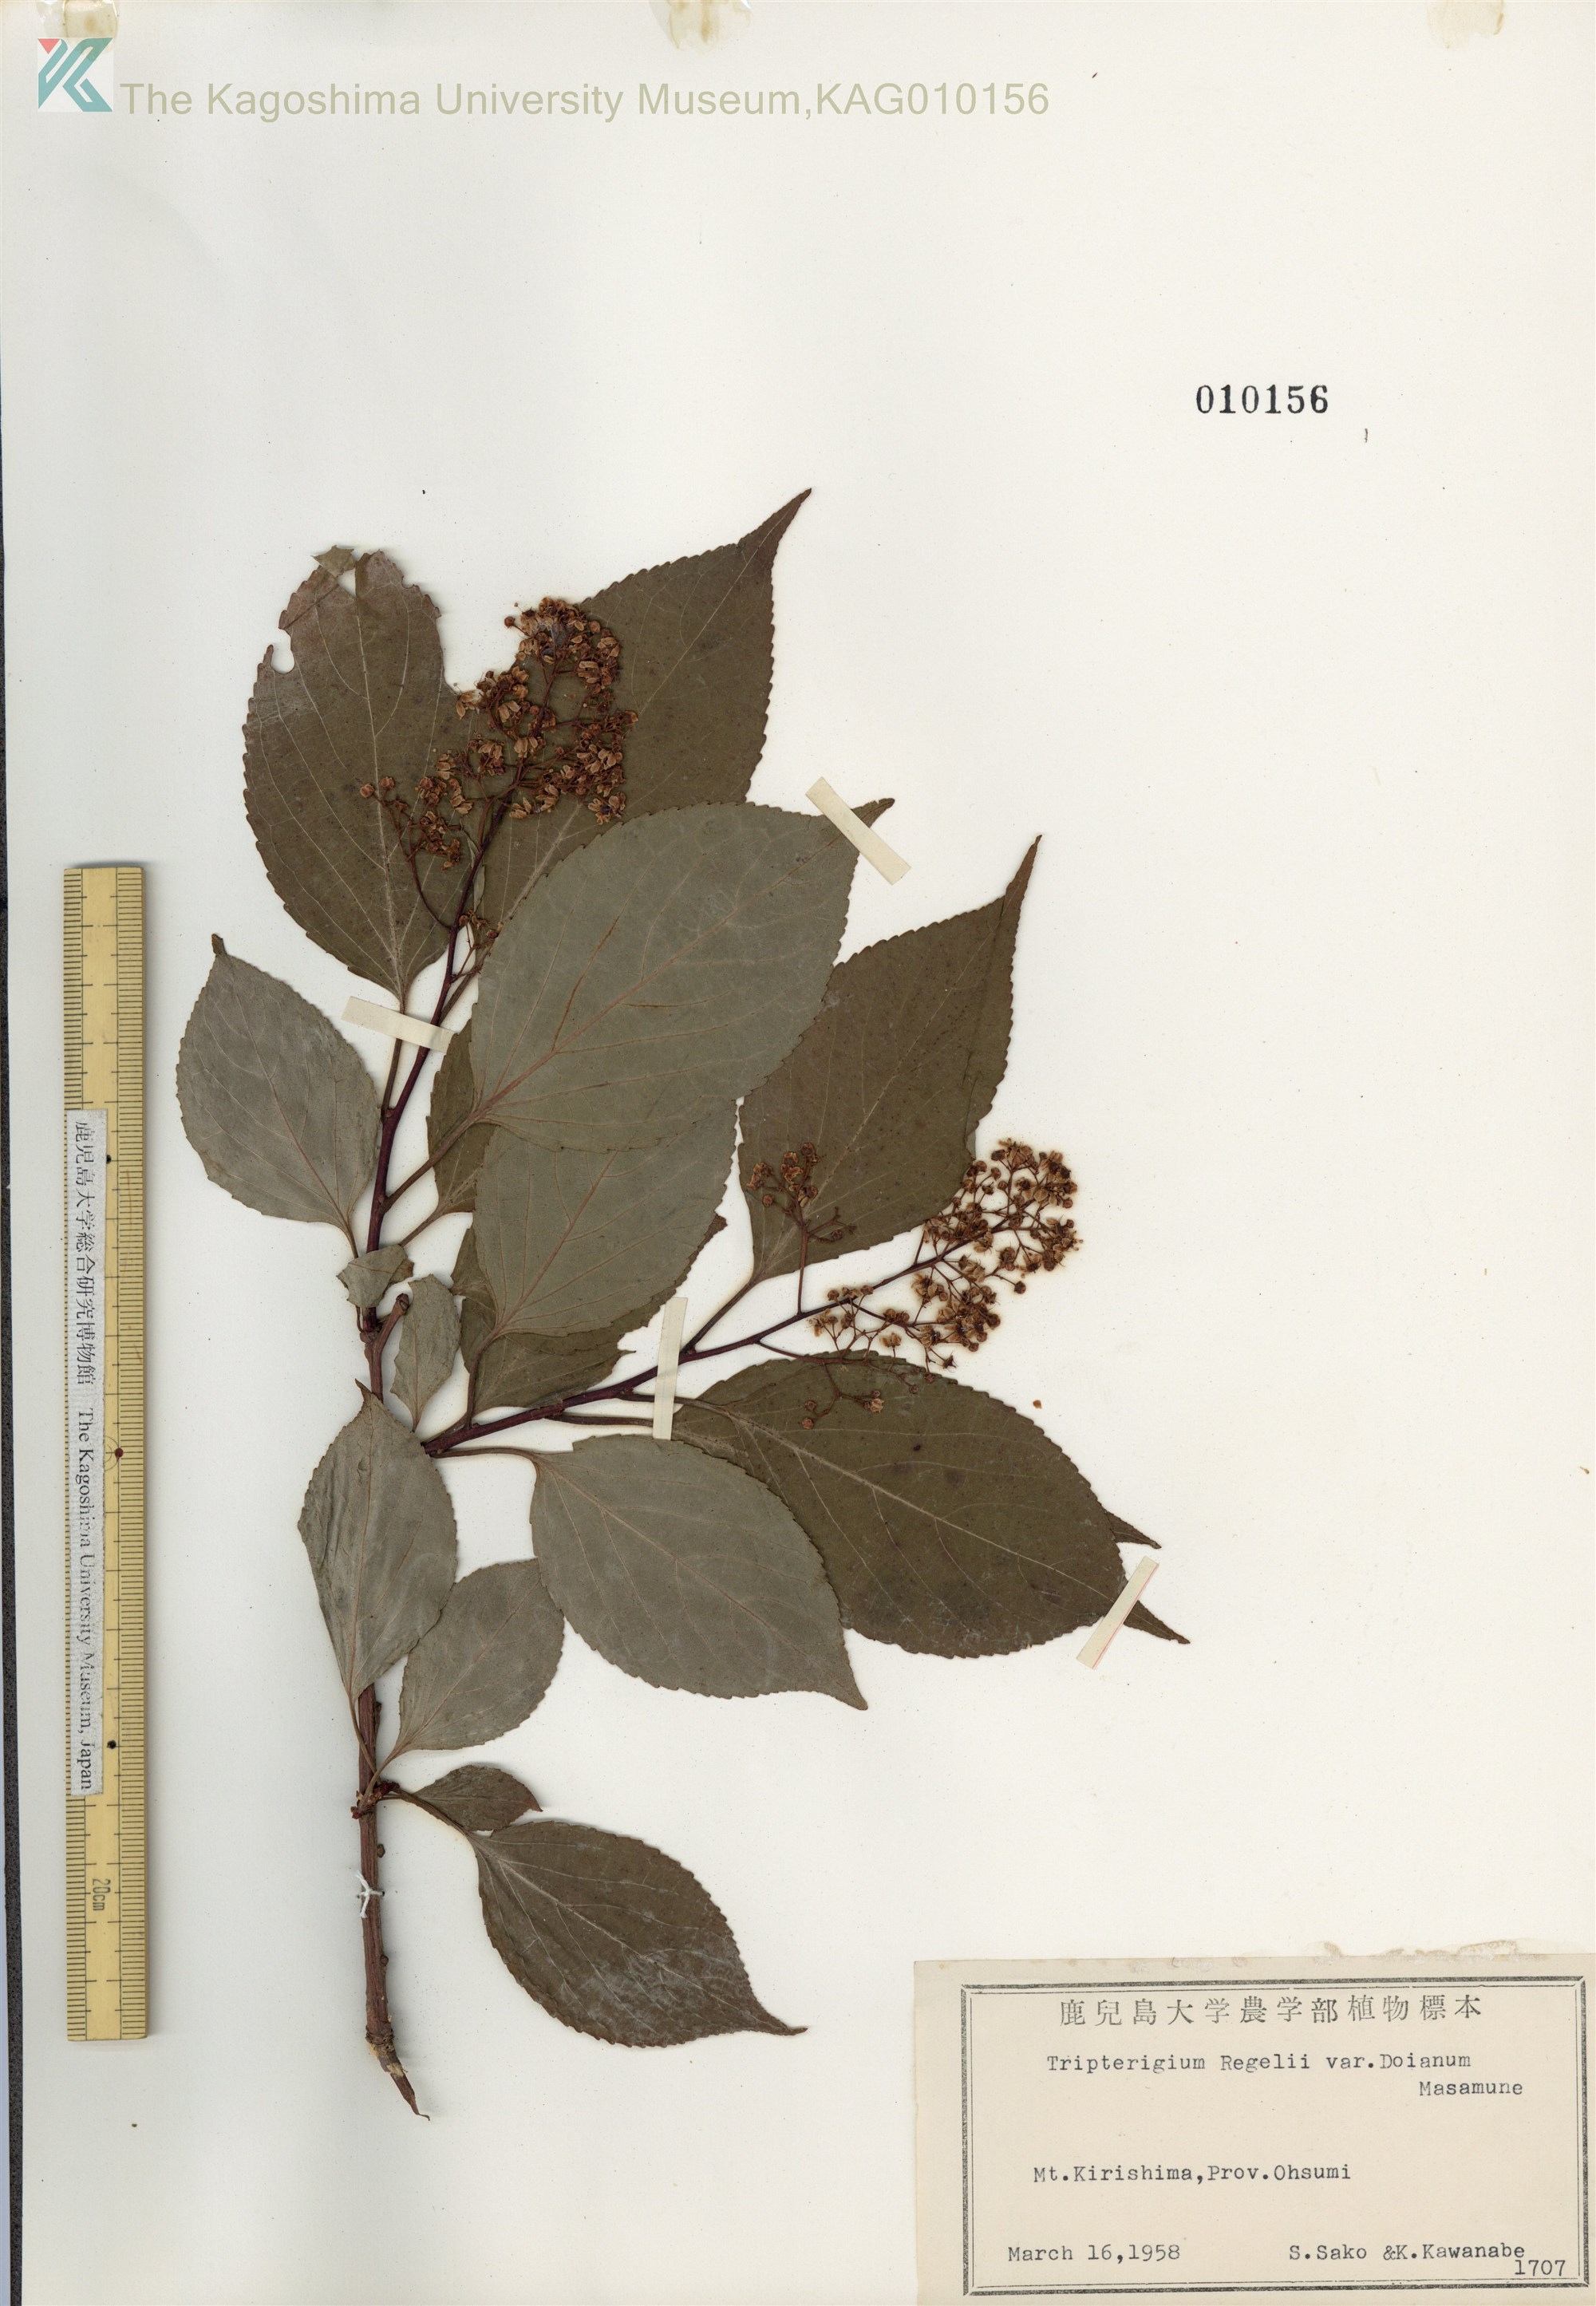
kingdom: Plantae
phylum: Tracheophyta
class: Magnoliopsida
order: Celastrales
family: Celastraceae
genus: Tripterygium
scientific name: Tripterygium doianum
